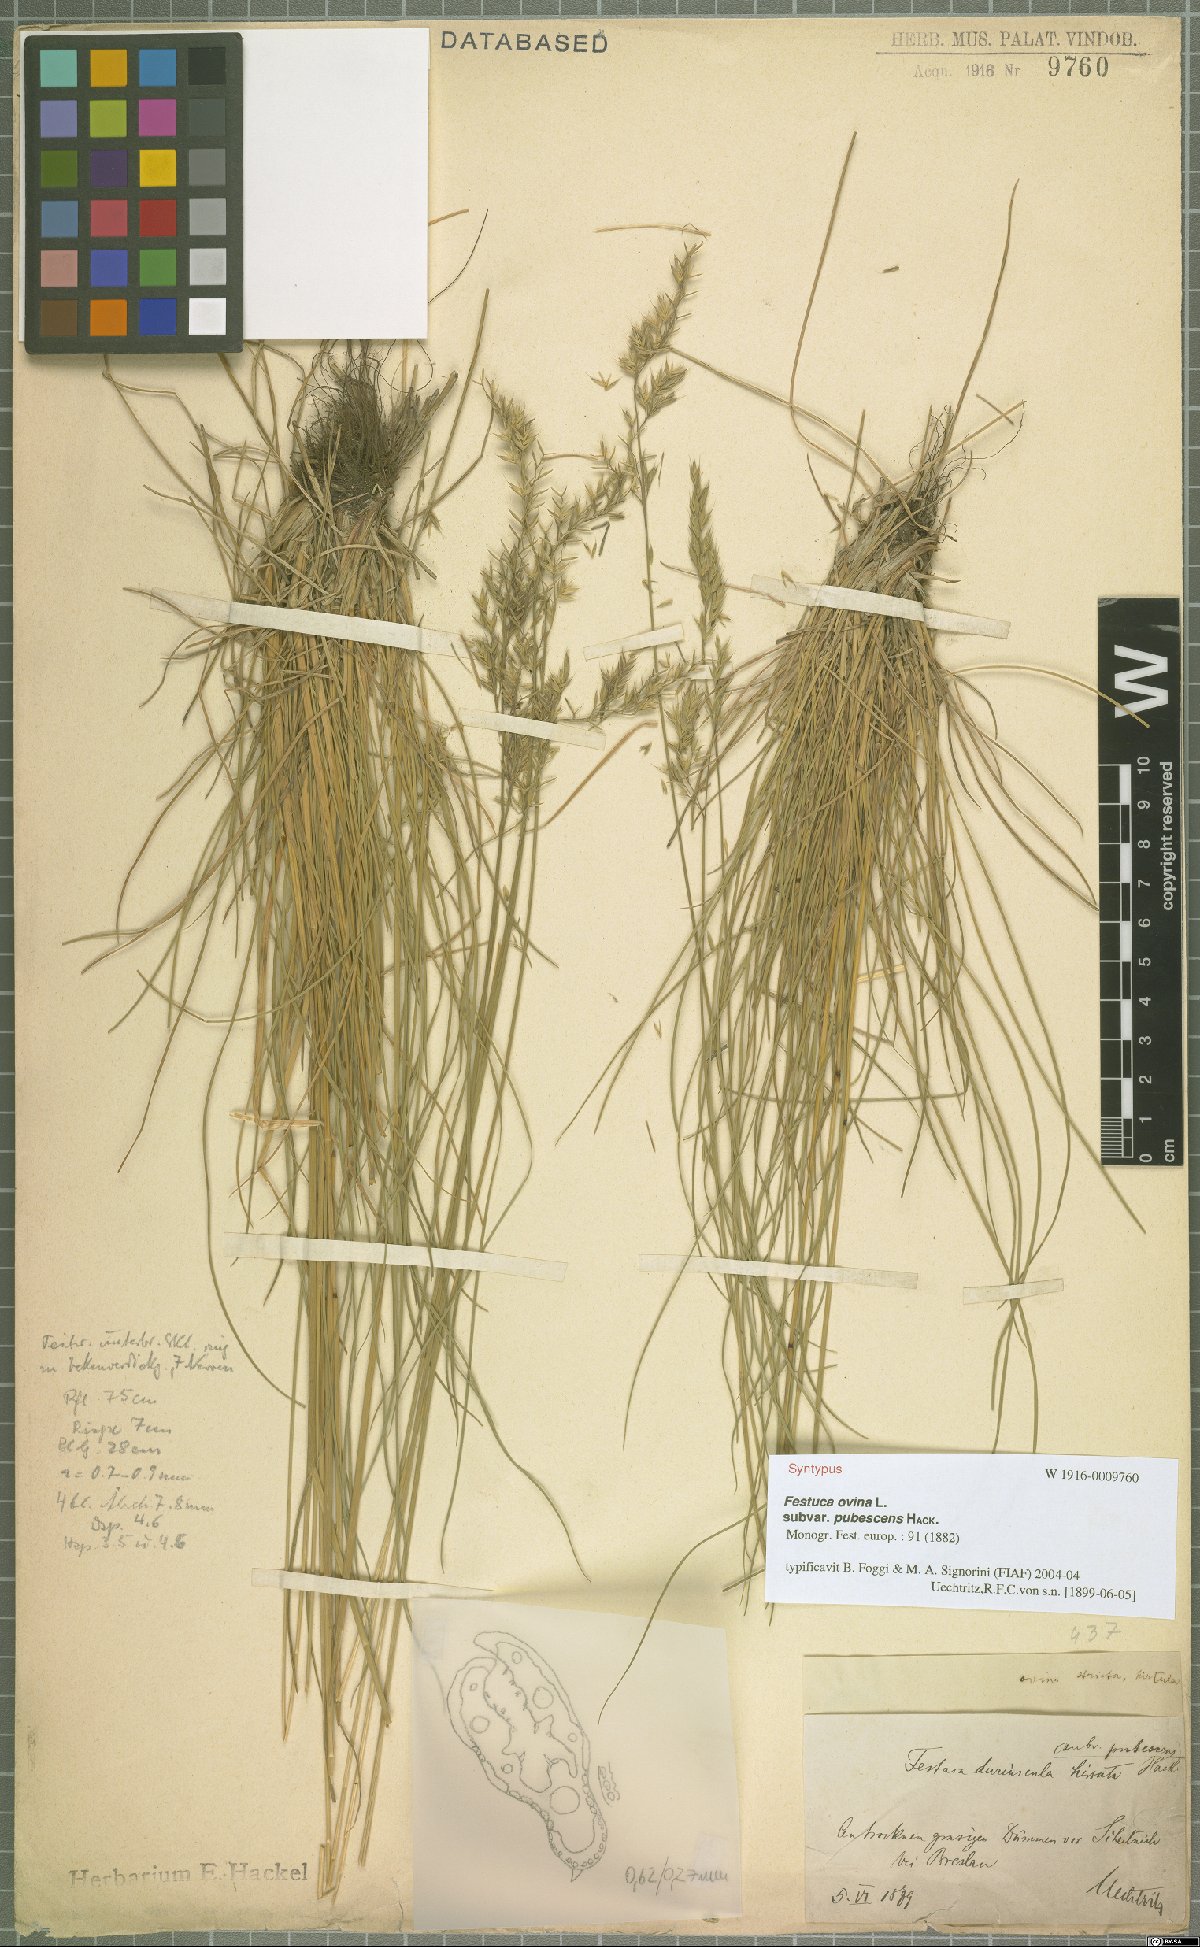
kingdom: Plantae
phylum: Tracheophyta
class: Liliopsida
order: Poales
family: Poaceae
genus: Festuca
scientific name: Festuca ovina
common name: Sheep fescue
